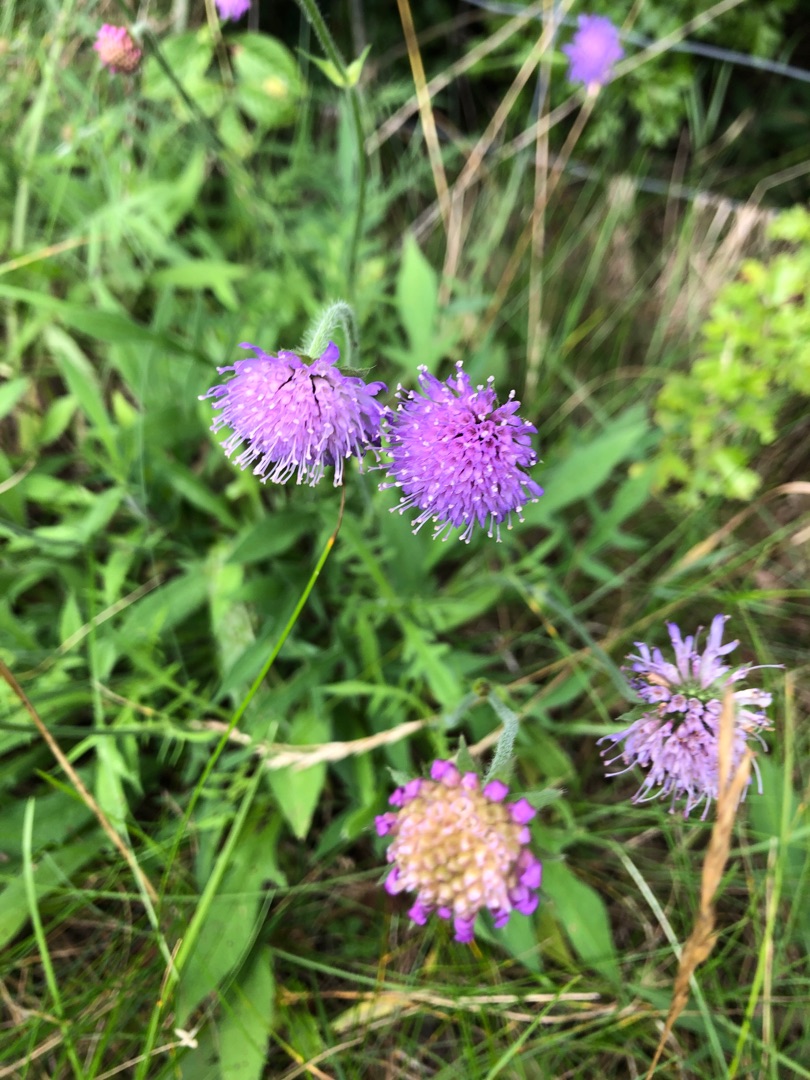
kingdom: Plantae
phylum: Tracheophyta
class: Magnoliopsida
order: Dipsacales
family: Caprifoliaceae
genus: Knautia
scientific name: Knautia arvensis
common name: Blåhat
